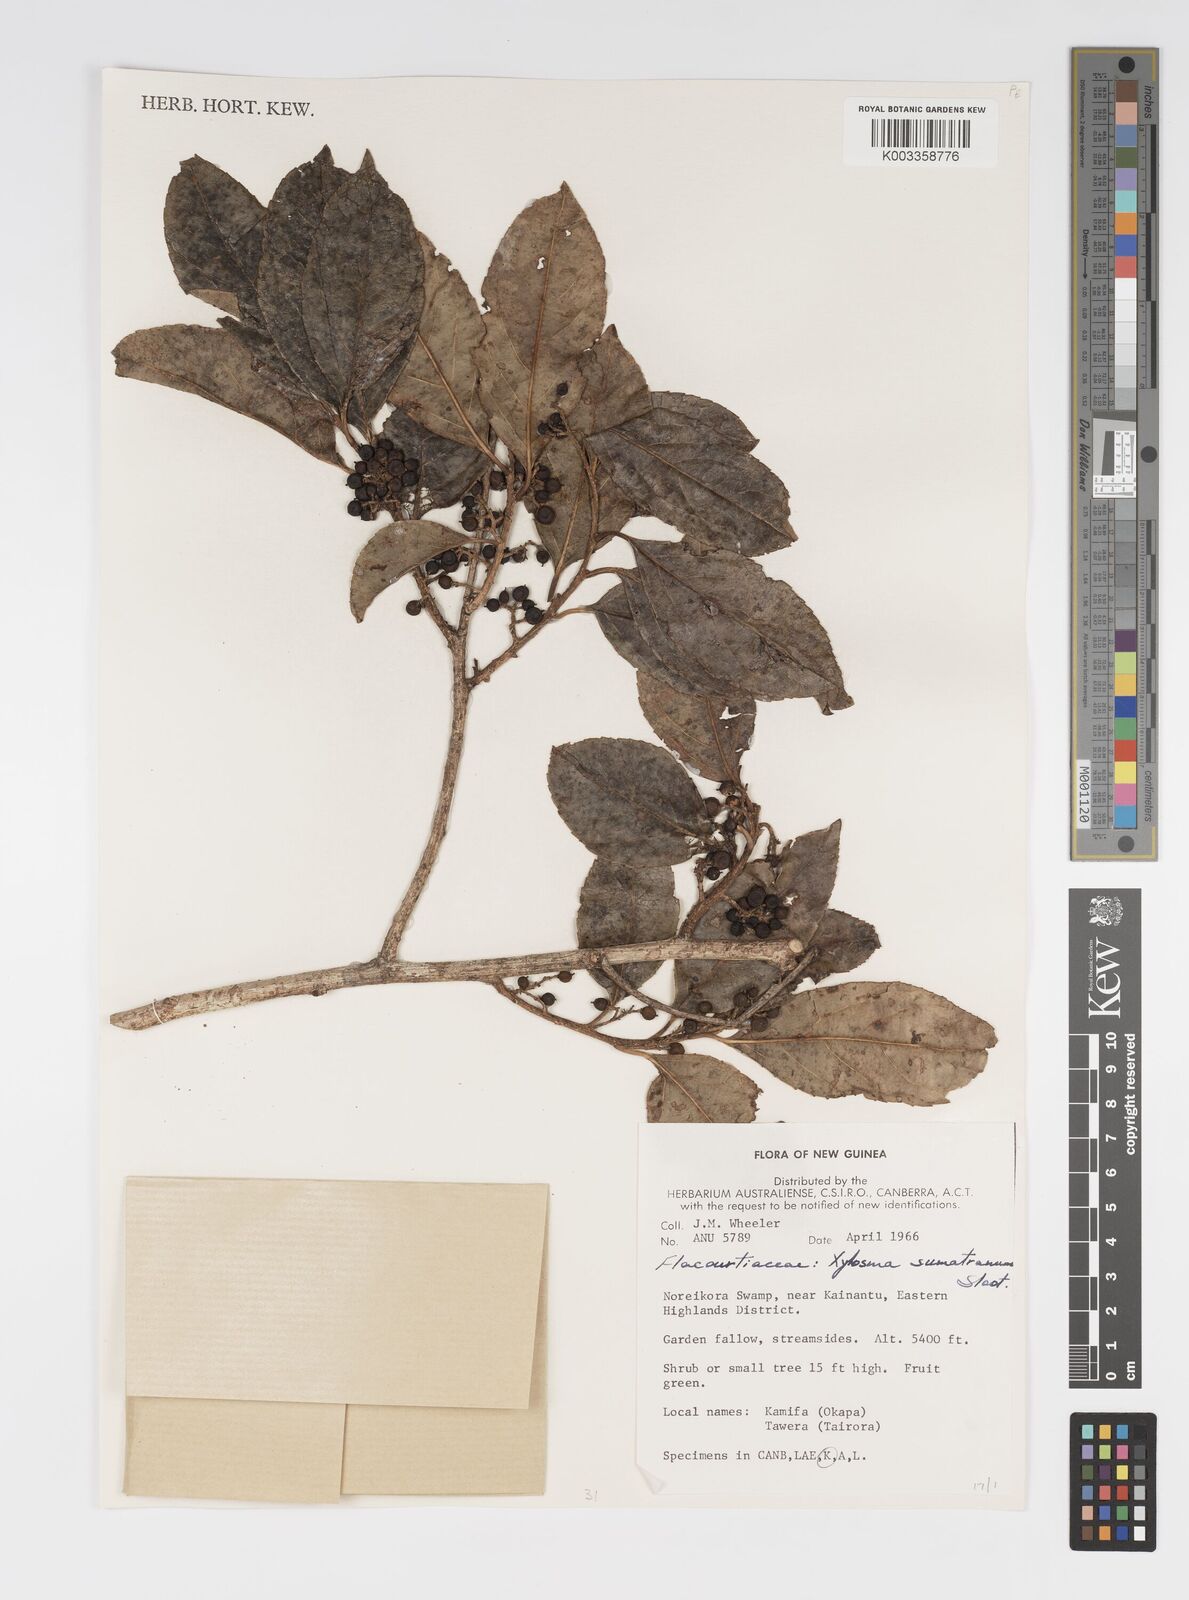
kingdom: Plantae
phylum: Tracheophyta
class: Magnoliopsida
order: Malpighiales
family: Salicaceae
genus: Xylosma
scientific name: Xylosma sumatrana
